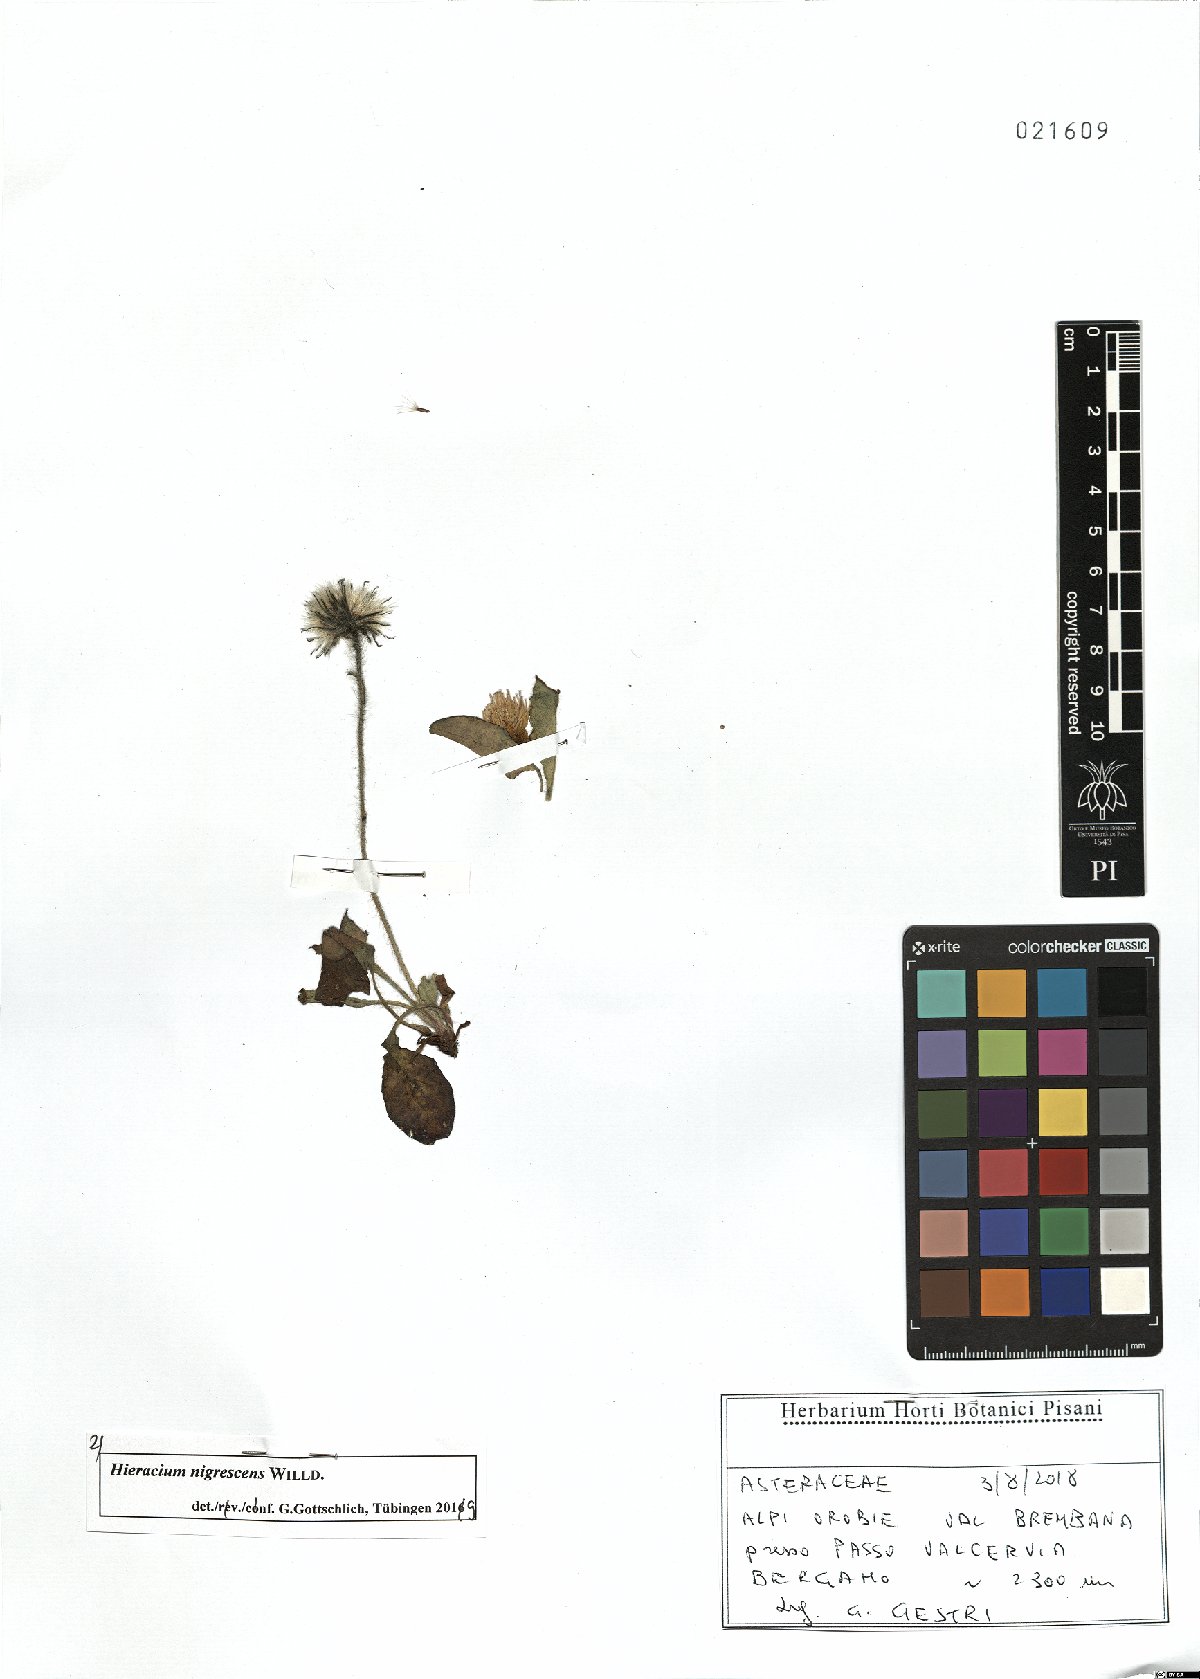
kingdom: Plantae
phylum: Tracheophyta
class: Magnoliopsida
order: Asterales
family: Asteraceae
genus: Hieracium
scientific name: Hieracium nigrescens
